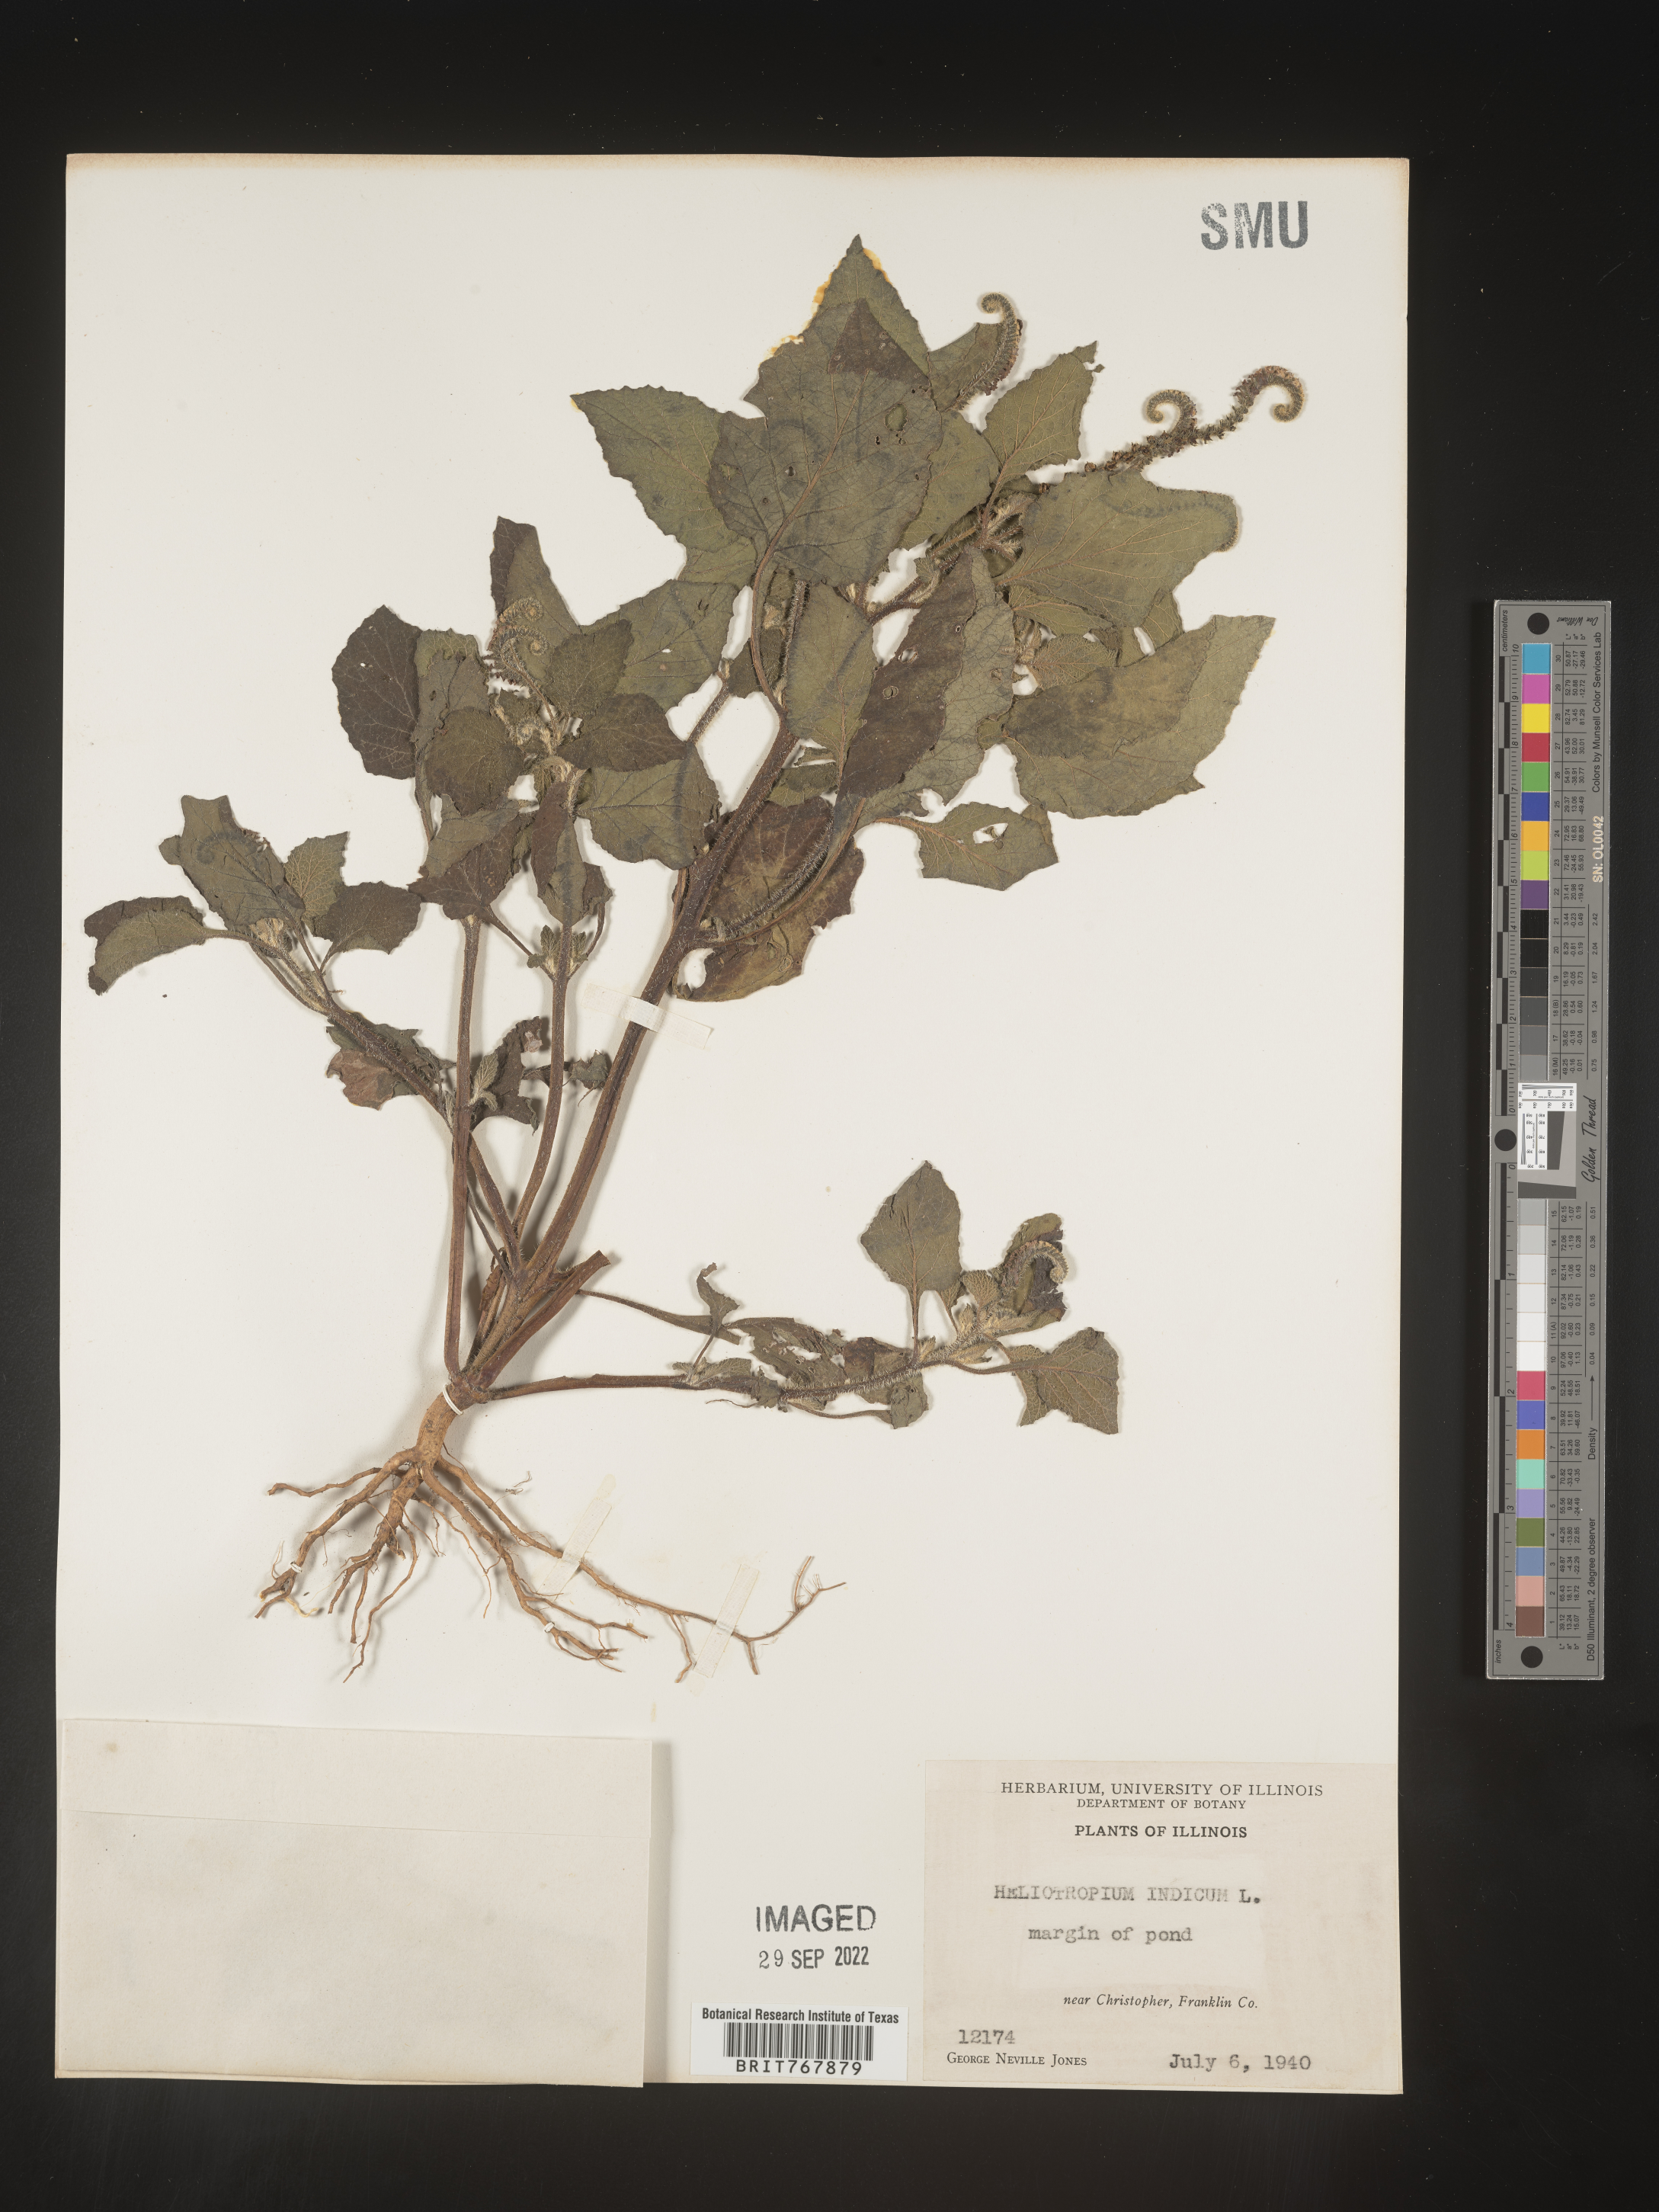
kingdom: Plantae
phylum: Tracheophyta
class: Magnoliopsida
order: Boraginales
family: Heliotropiaceae
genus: Heliotropium
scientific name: Heliotropium indicum
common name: Indian heliotrope
